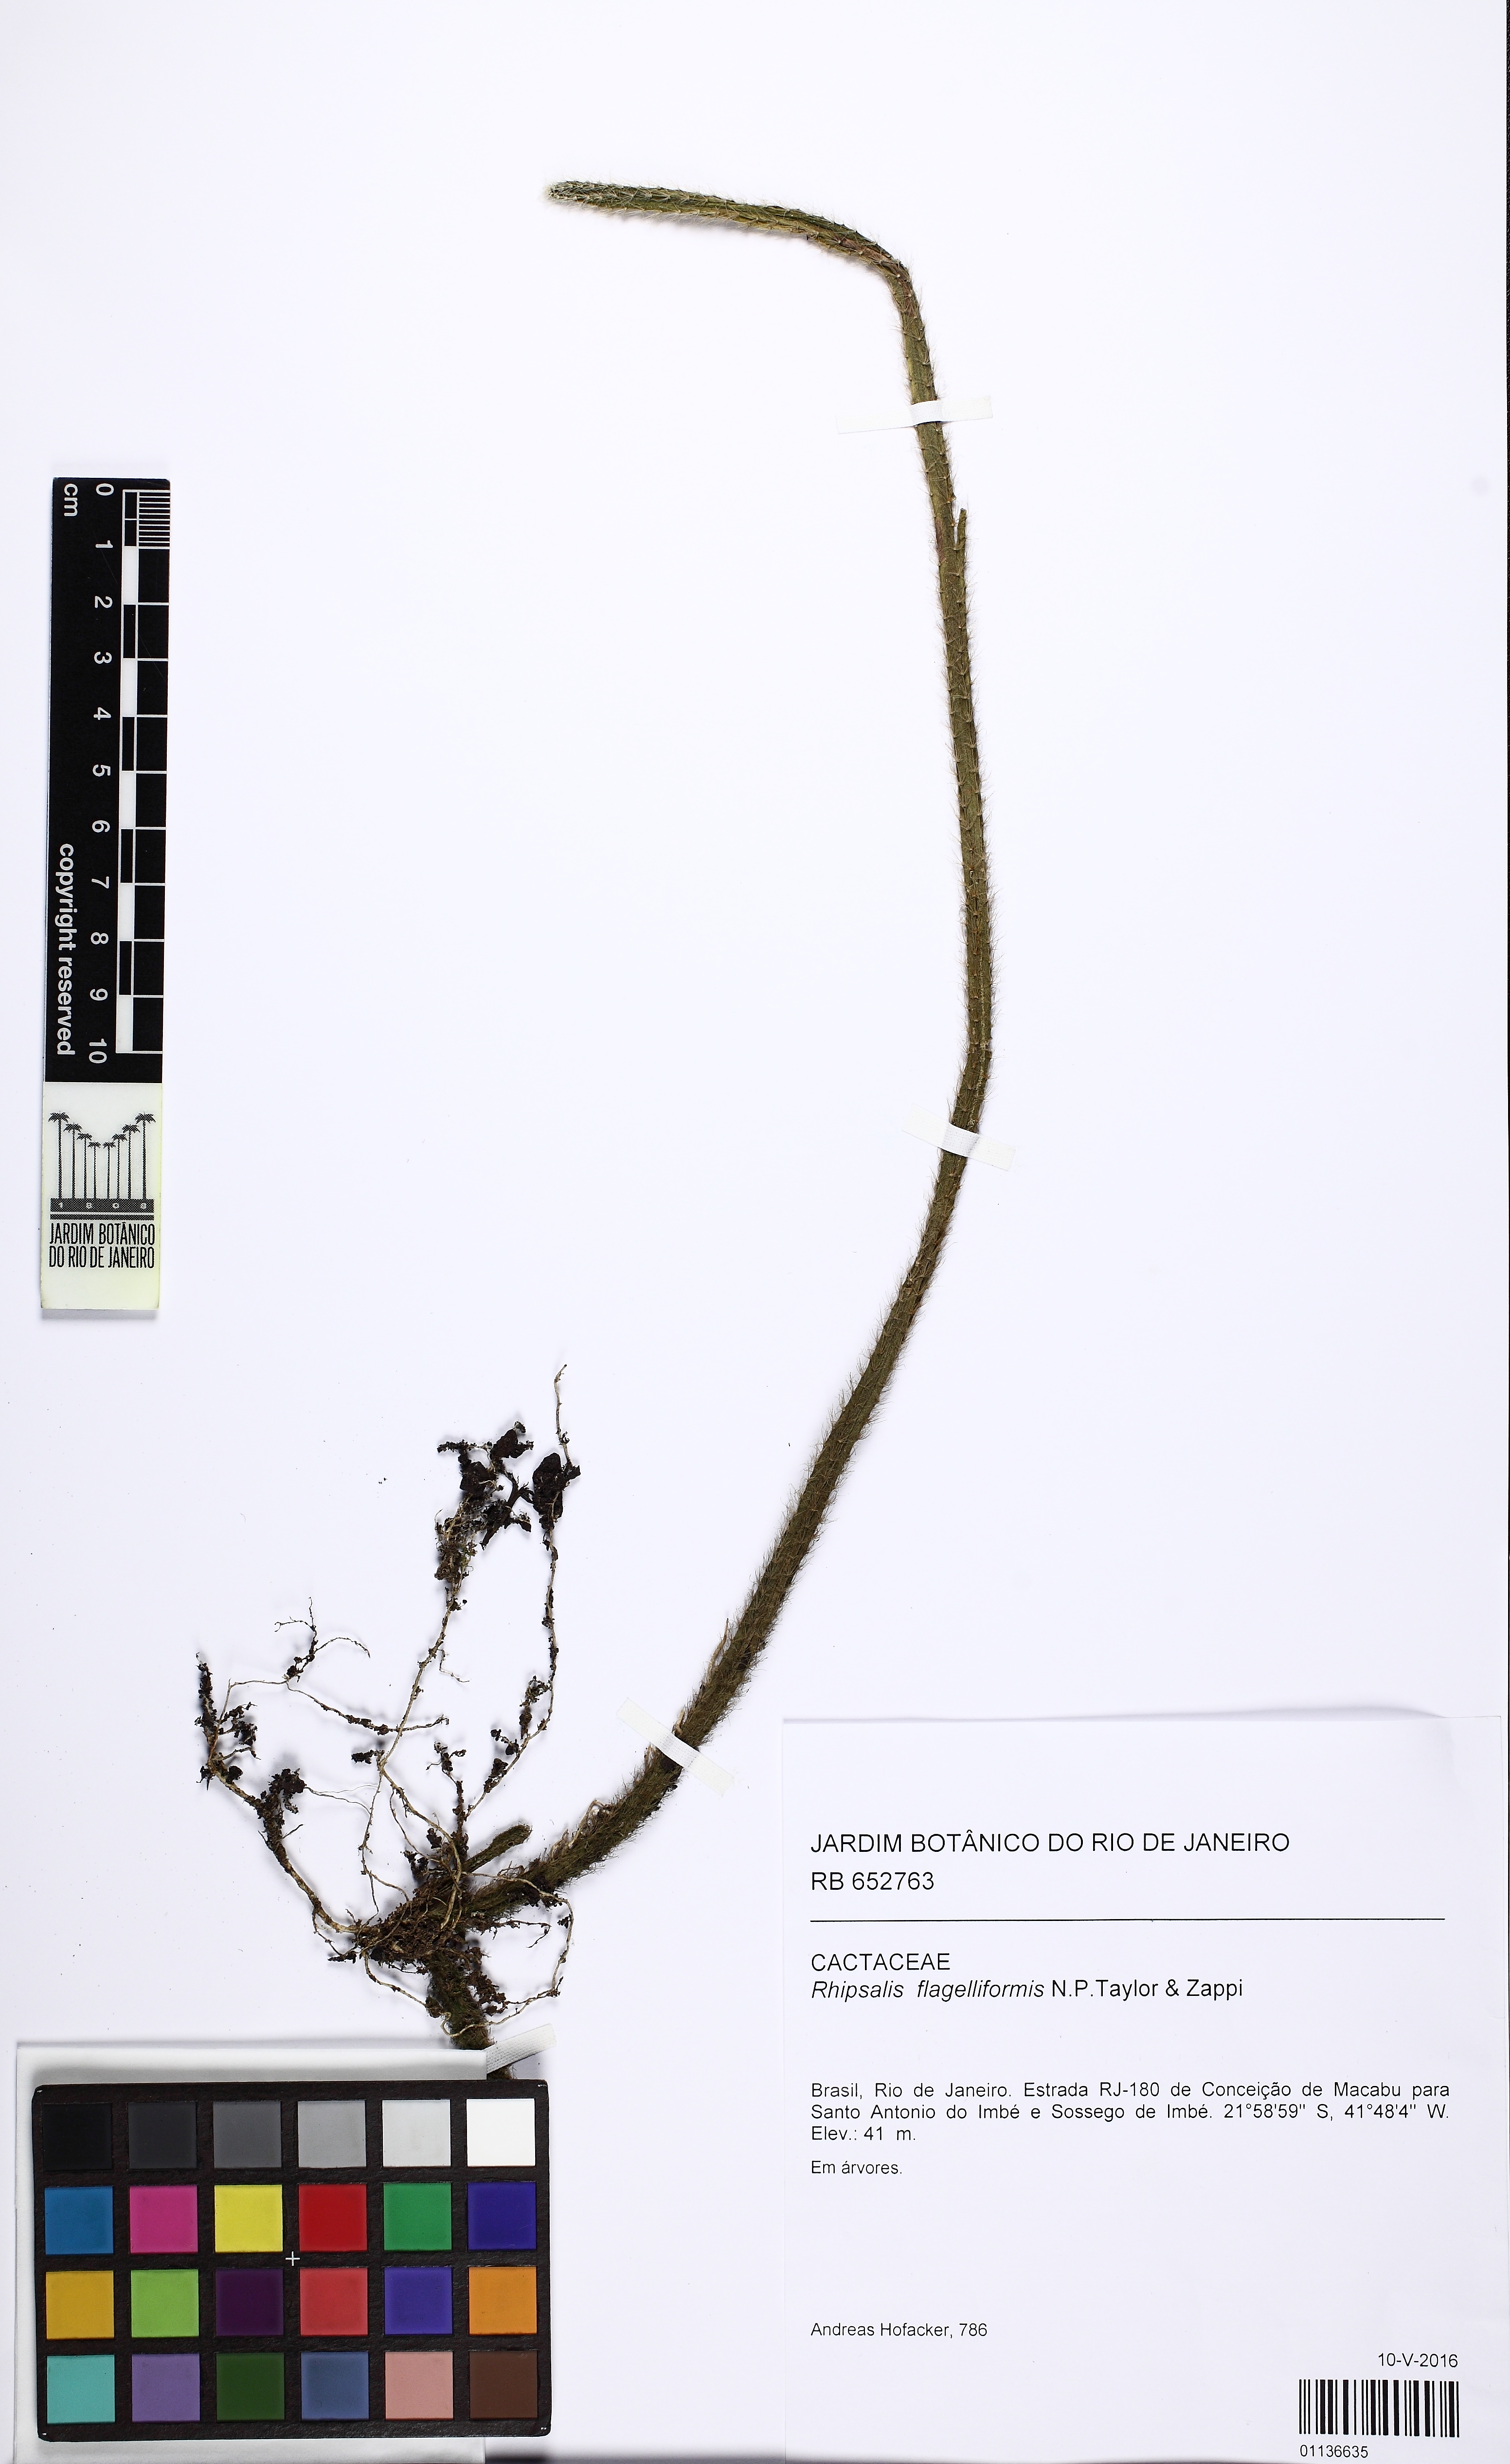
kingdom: Plantae
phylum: Tracheophyta
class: Magnoliopsida
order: Caryophyllales
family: Cactaceae
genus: Rhipsalis
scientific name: Rhipsalis flagelliformis
